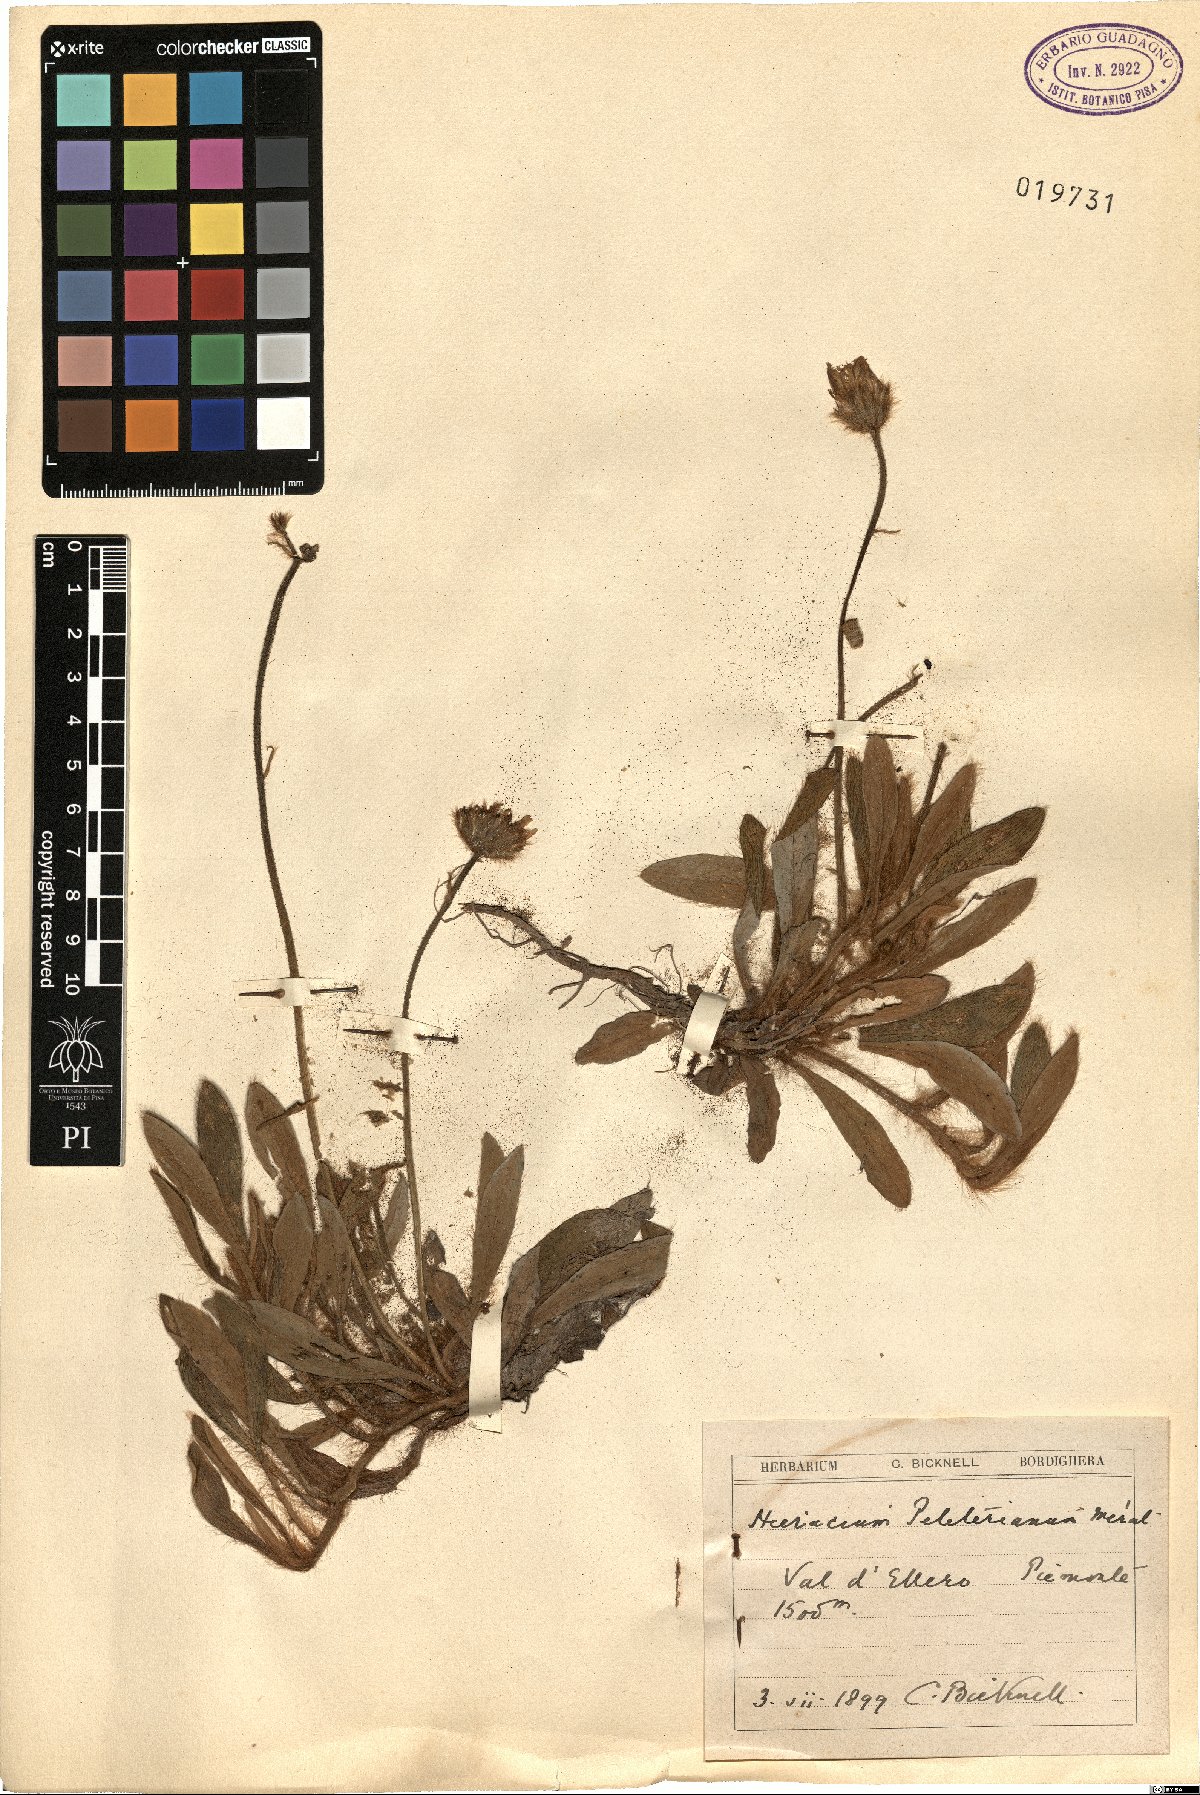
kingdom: Plantae
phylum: Tracheophyta
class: Magnoliopsida
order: Asterales
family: Asteraceae
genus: Pilosella
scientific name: Pilosella peleteriana
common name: Shaggy mouse-ear-hawkweed
